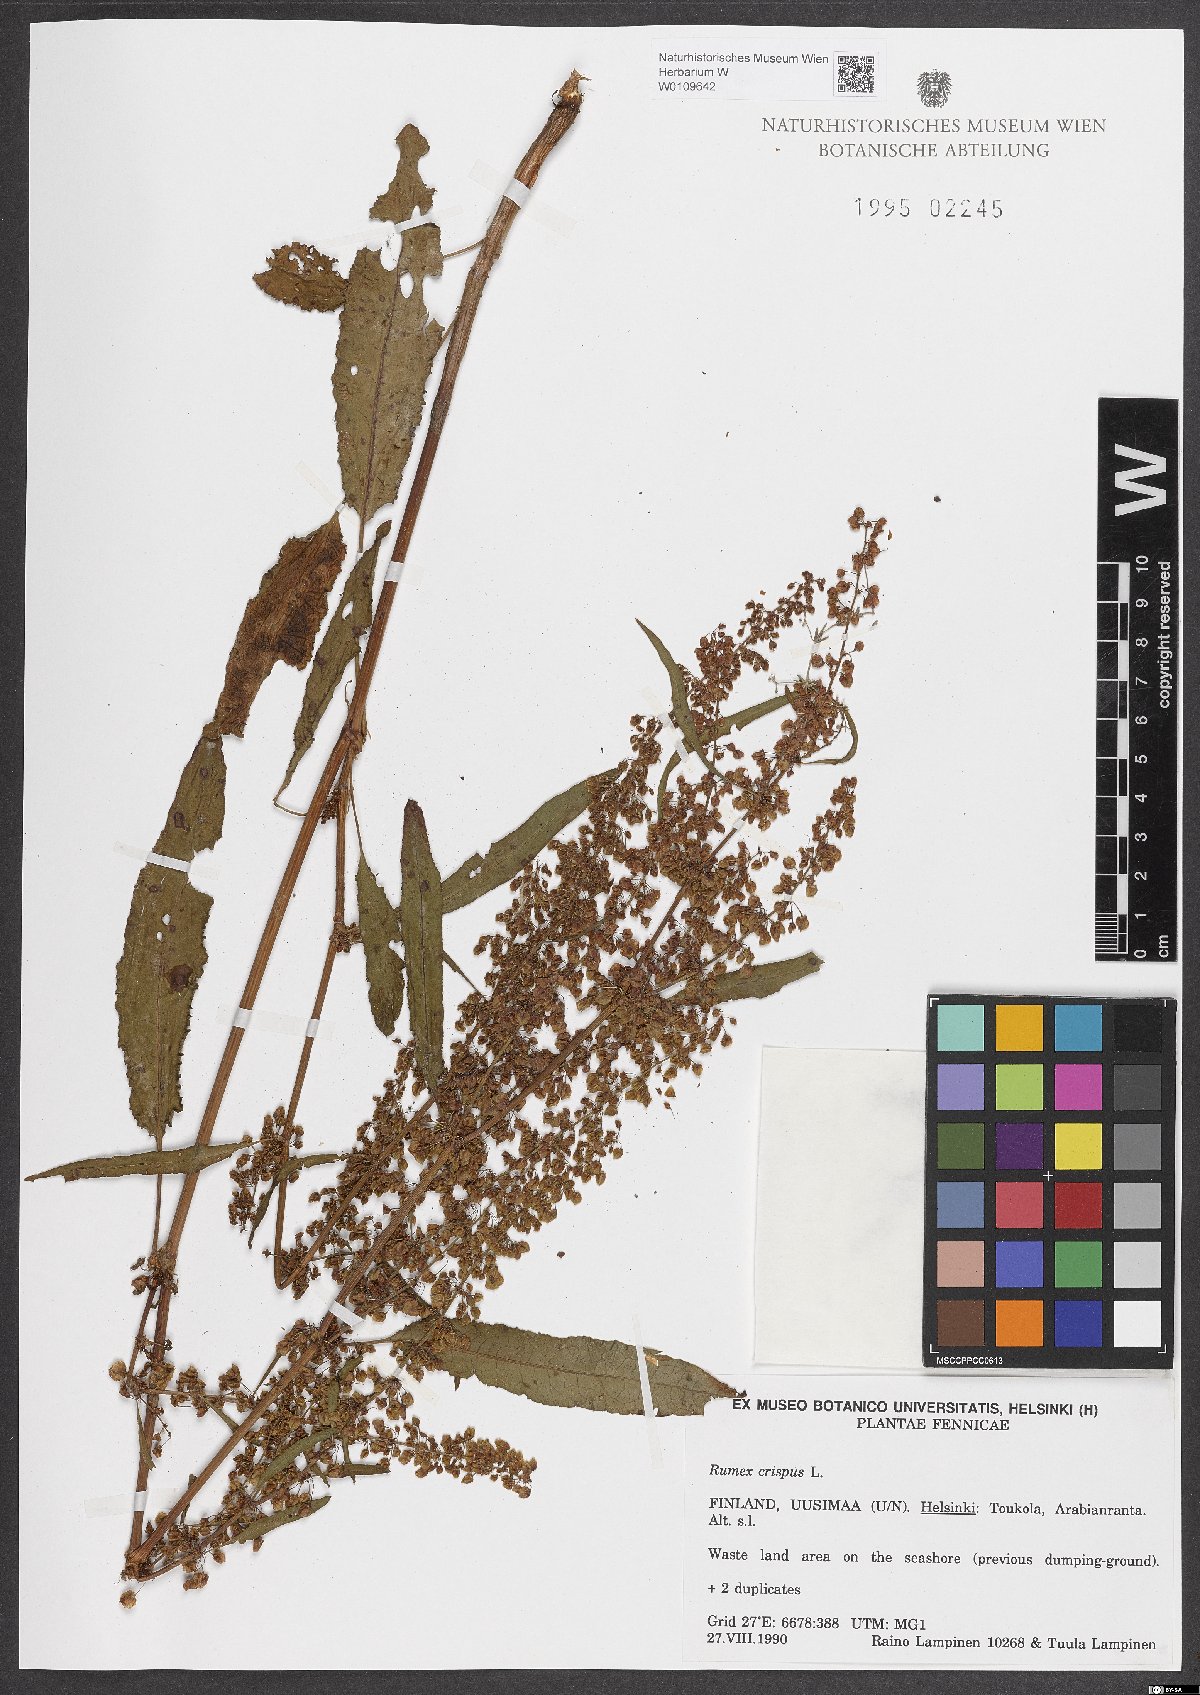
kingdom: Plantae
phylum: Tracheophyta
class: Magnoliopsida
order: Caryophyllales
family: Polygonaceae
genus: Rumex
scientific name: Rumex crispus
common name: Curled dock
